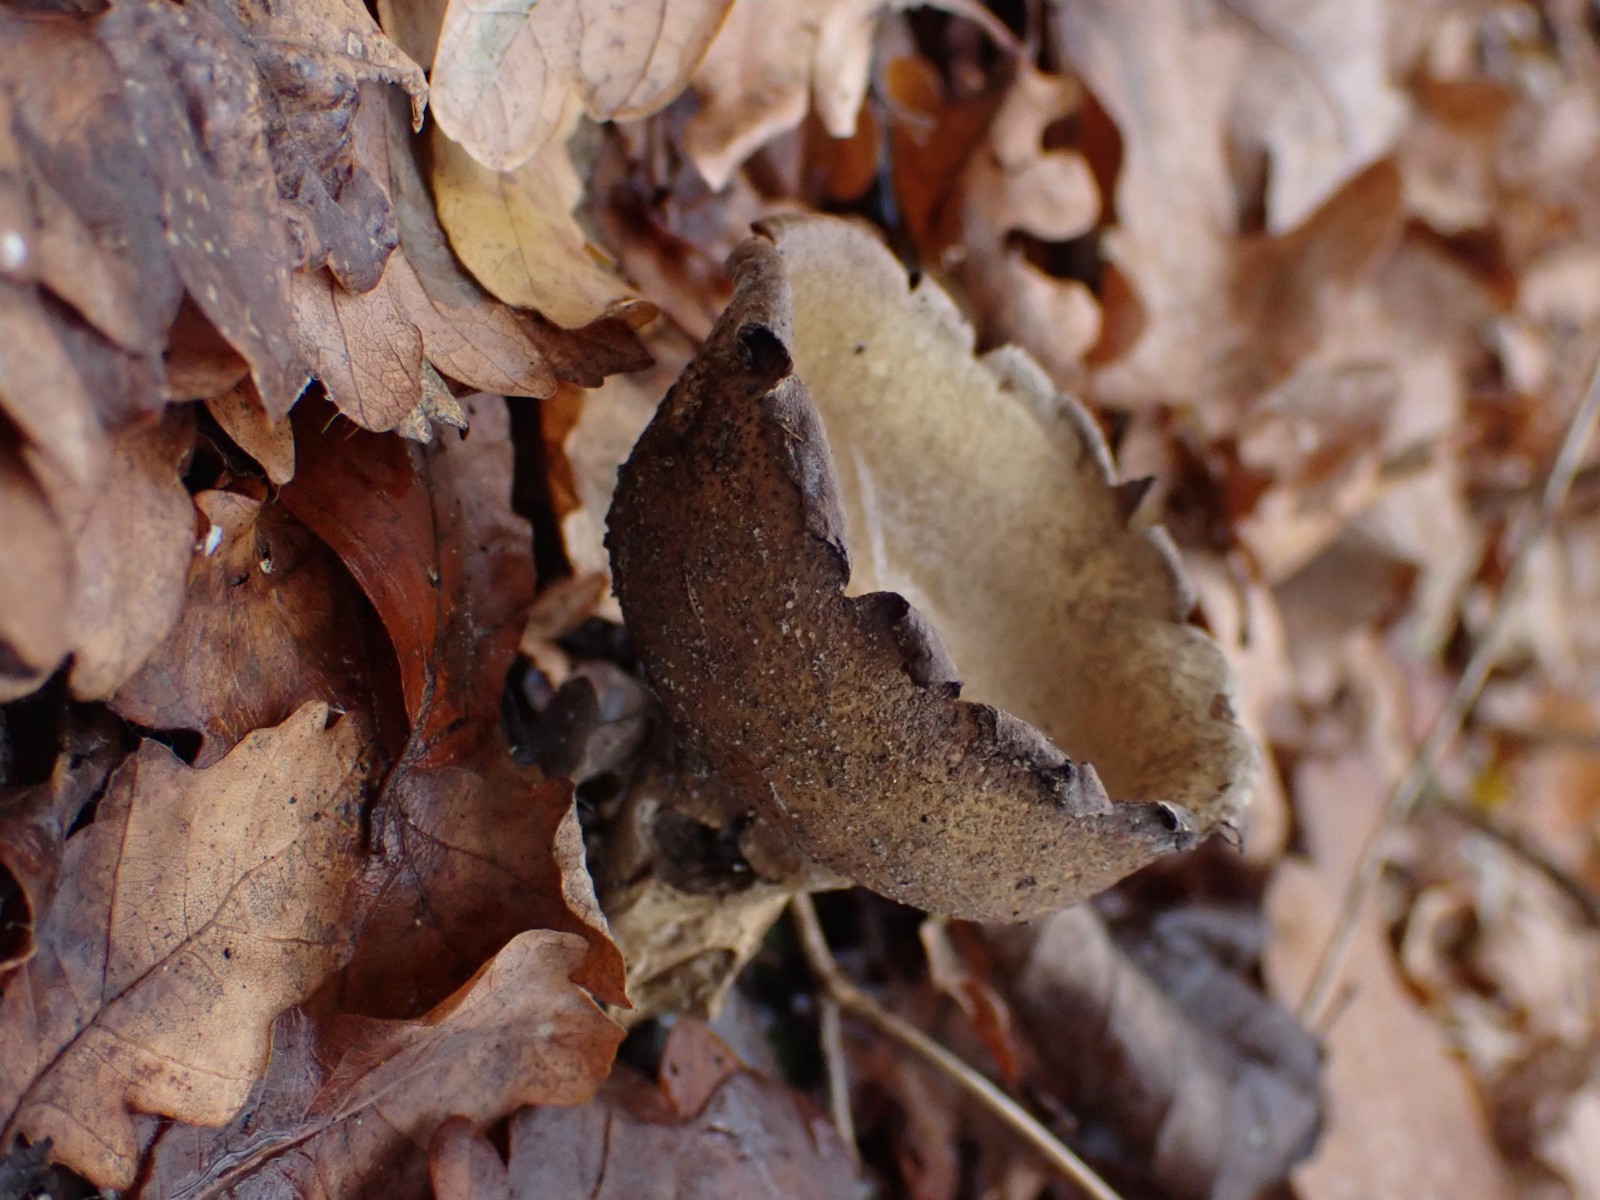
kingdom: Fungi
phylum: Basidiomycota
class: Agaricomycetes
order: Boletales
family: Sclerodermataceae
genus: Scleroderma
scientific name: Scleroderma verrucosum
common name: stilket bruskbold
